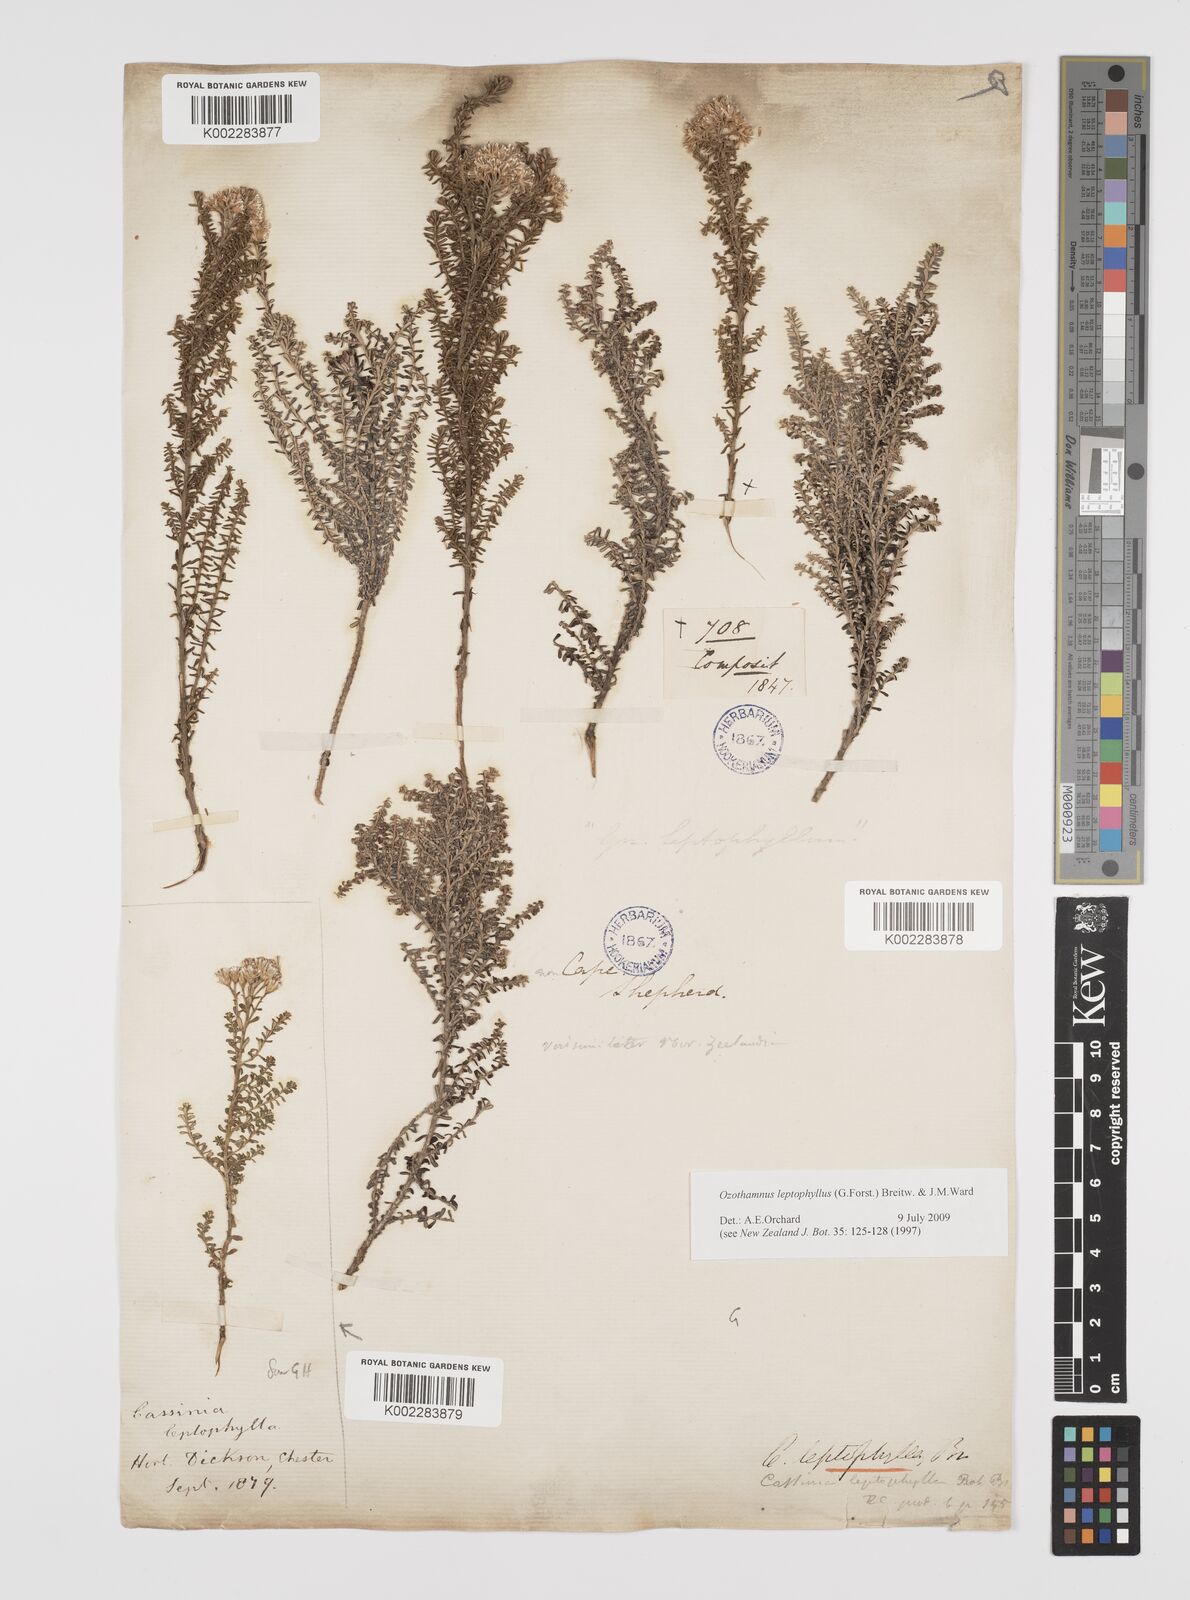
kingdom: Plantae
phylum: Tracheophyta
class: Magnoliopsida
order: Asterales
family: Asteraceae
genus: Ozothamnus
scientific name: Ozothamnus leptophyllus
